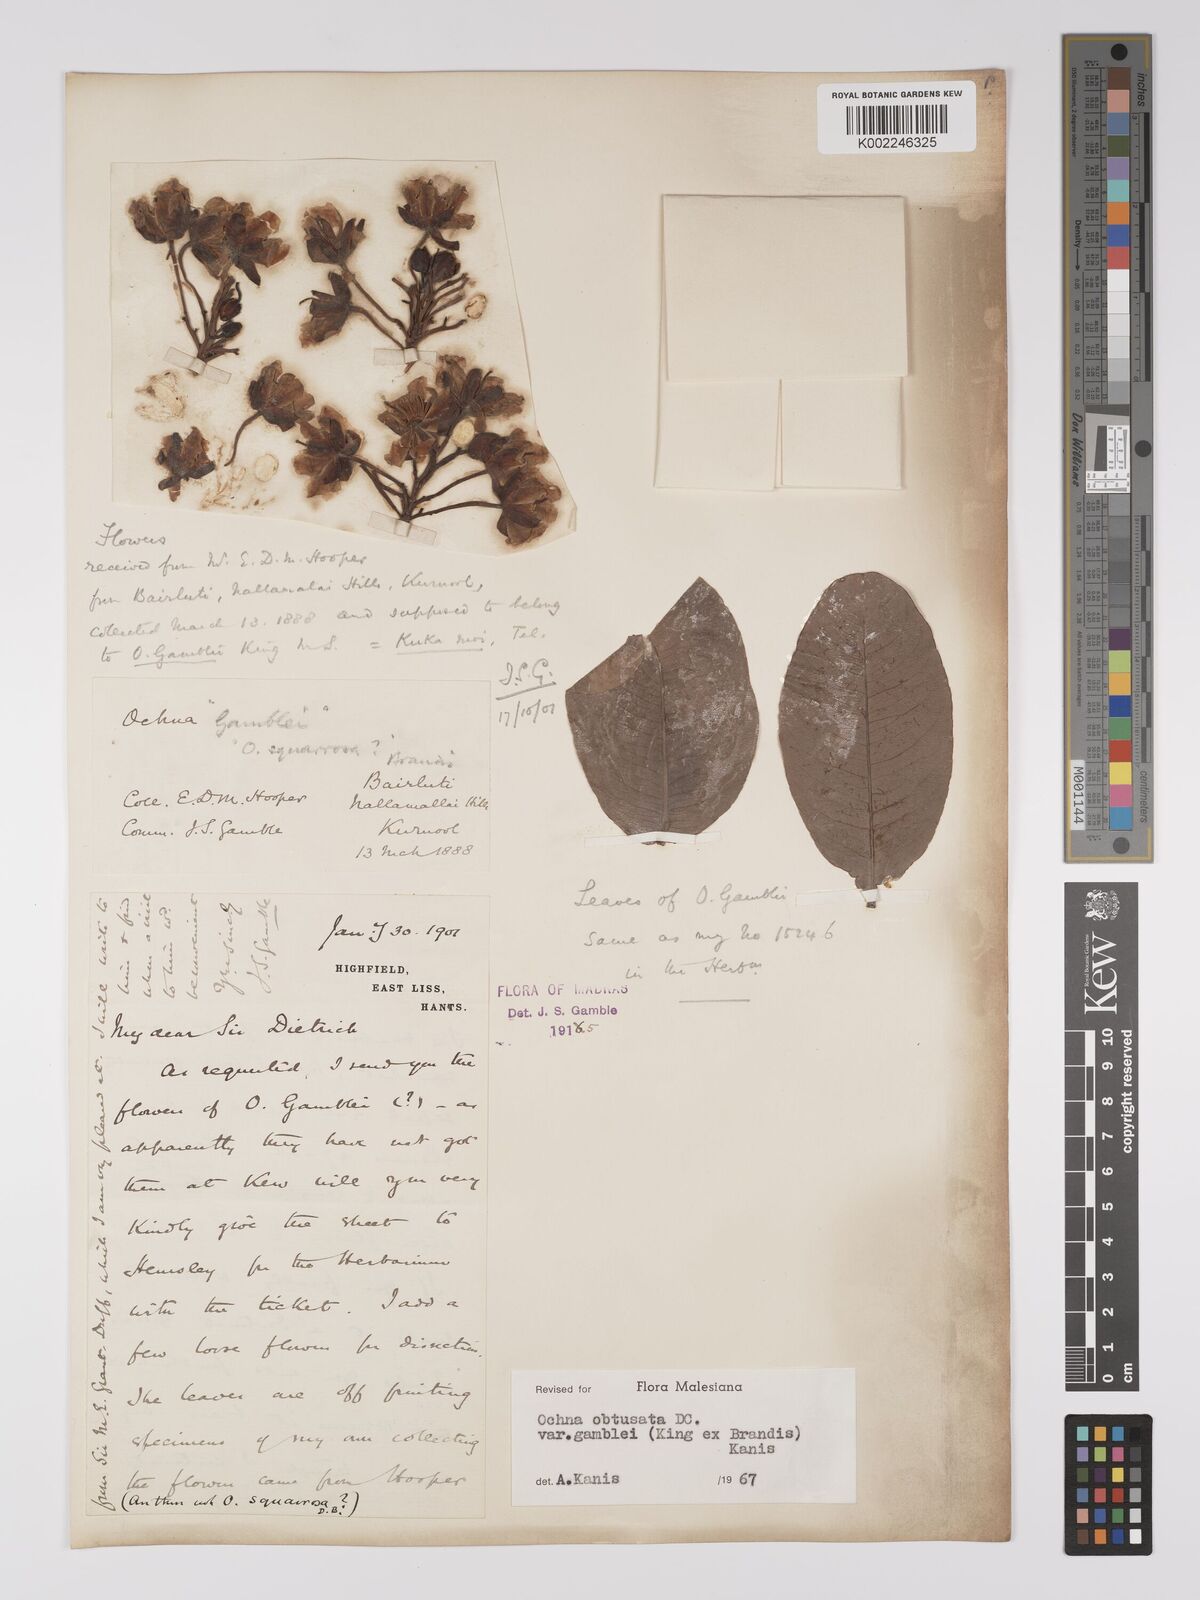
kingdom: Plantae
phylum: Tracheophyta
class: Magnoliopsida
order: Malpighiales
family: Ochnaceae
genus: Ochna
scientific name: Ochna obtusata
